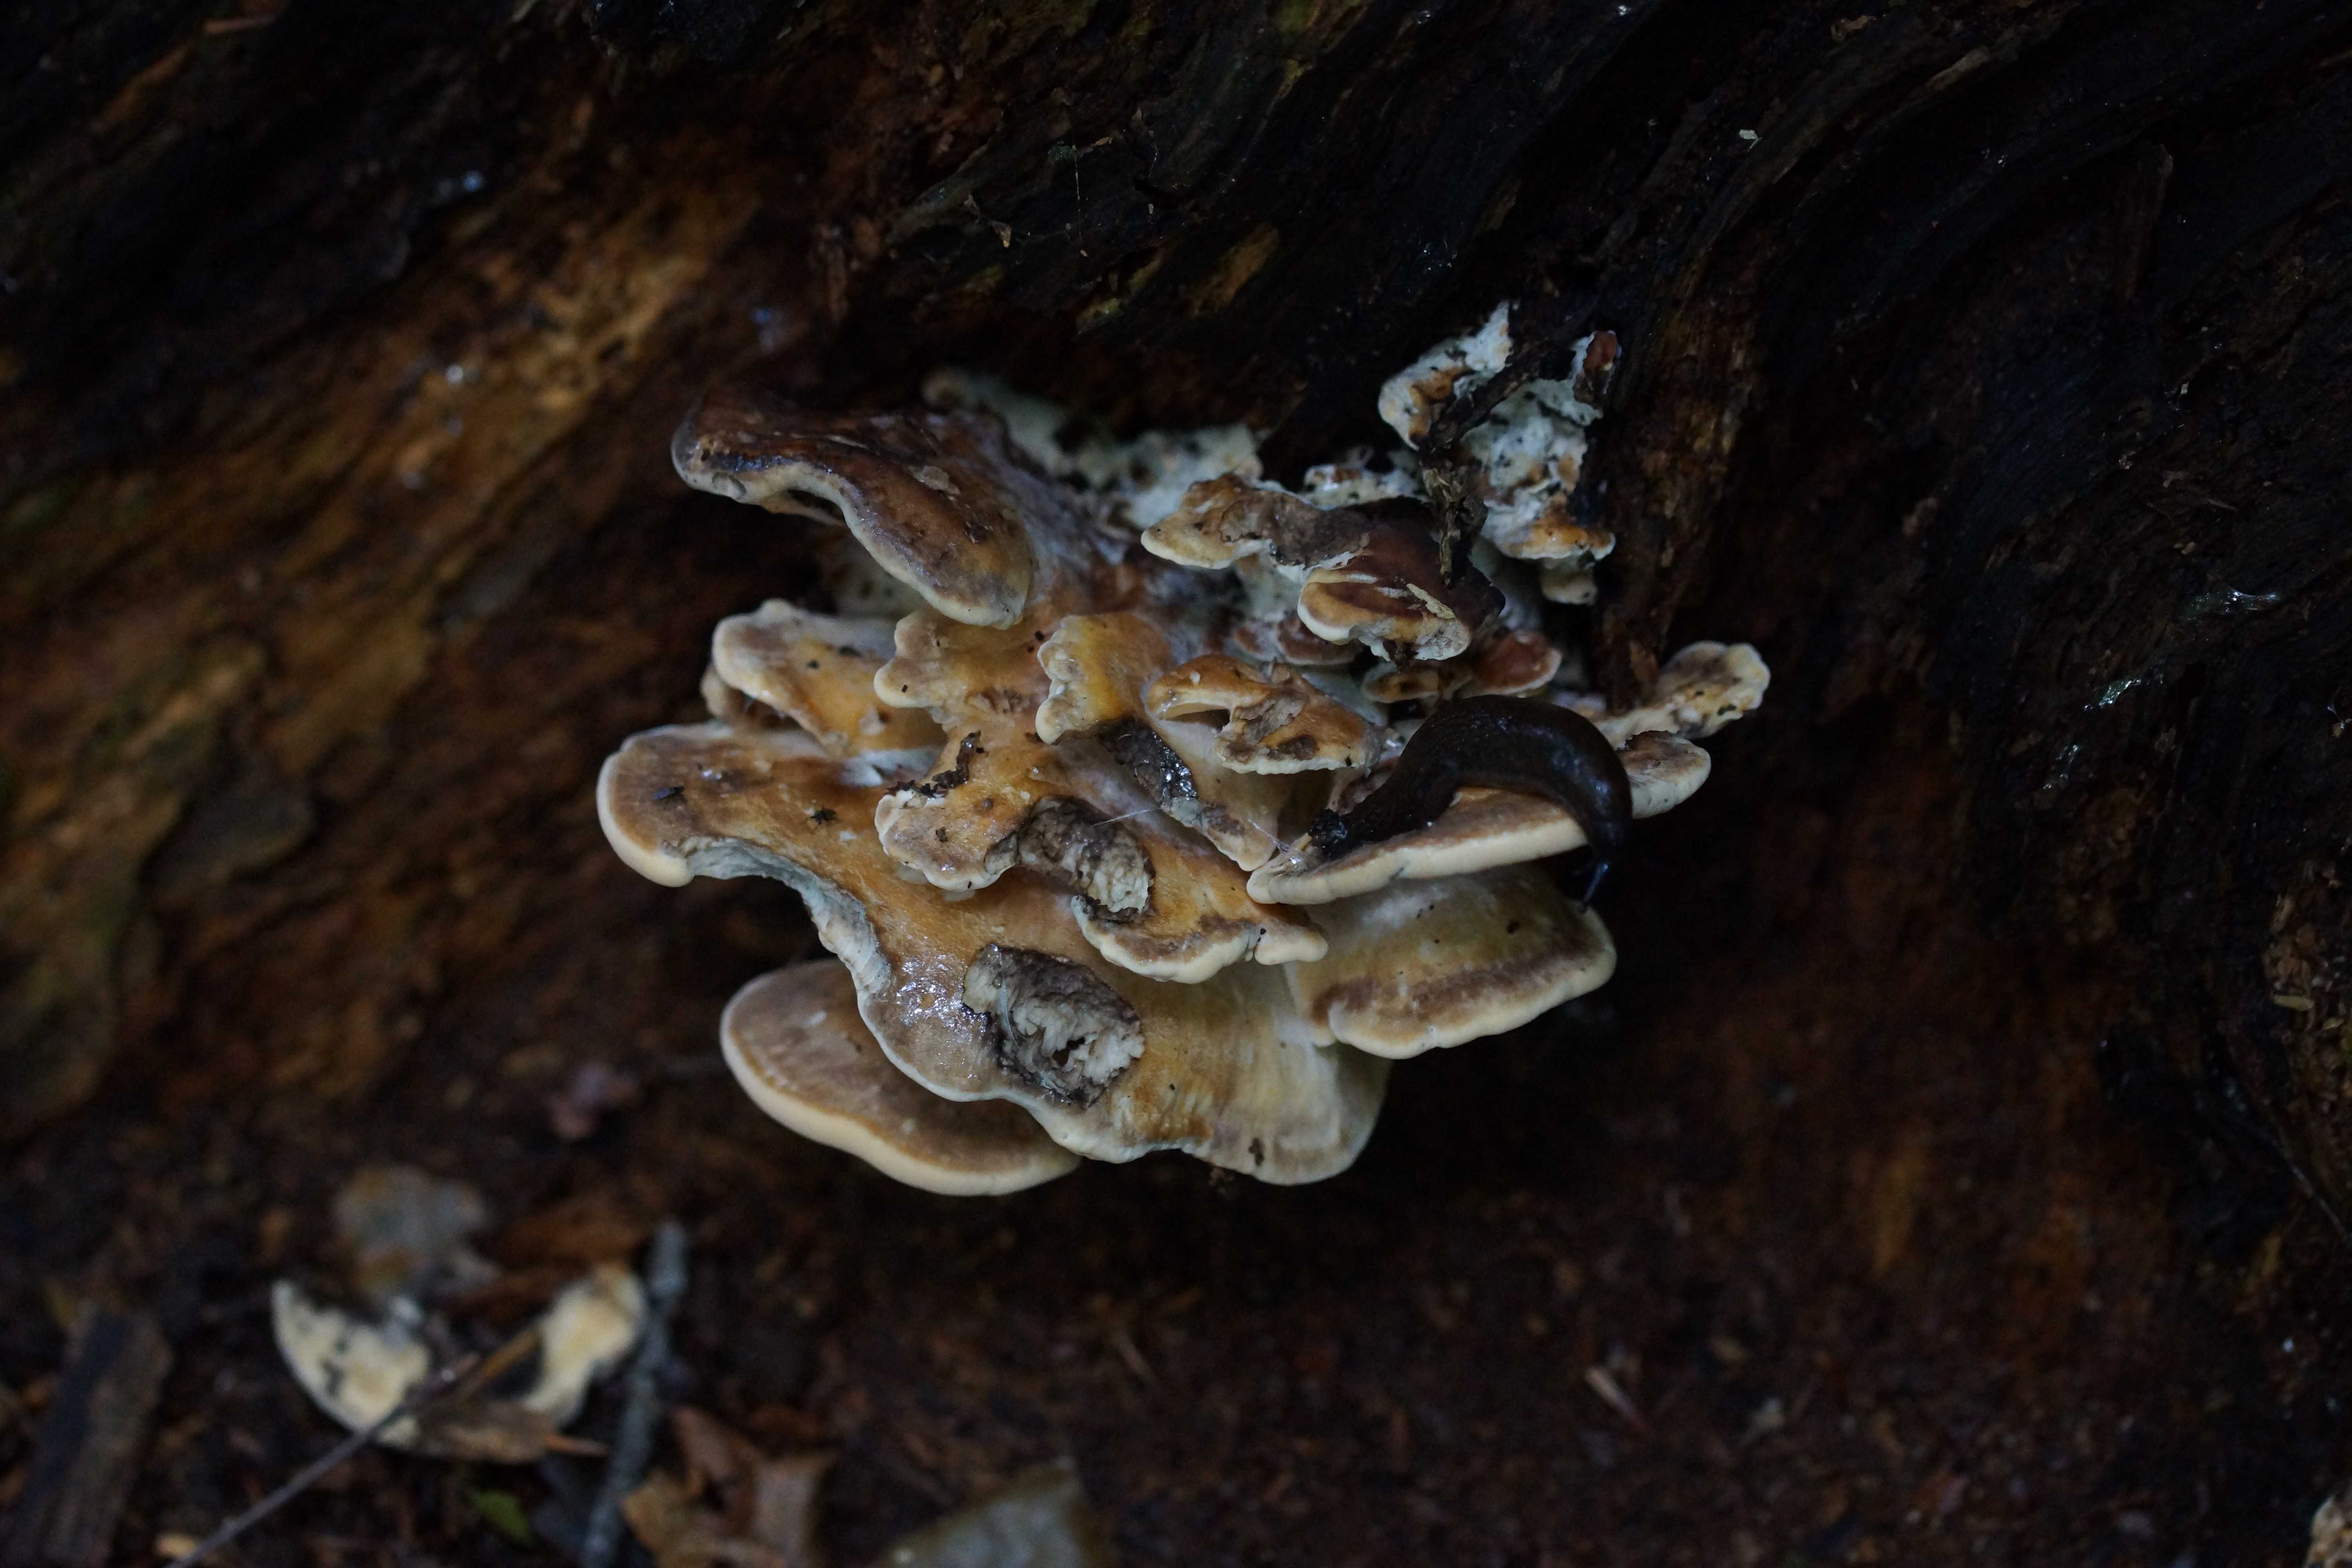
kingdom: Fungi
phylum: Basidiomycota
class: Agaricomycetes
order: Polyporales
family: Meripilaceae
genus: Meripilus
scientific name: Meripilus giganteus
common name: kæmpeporesvamp
